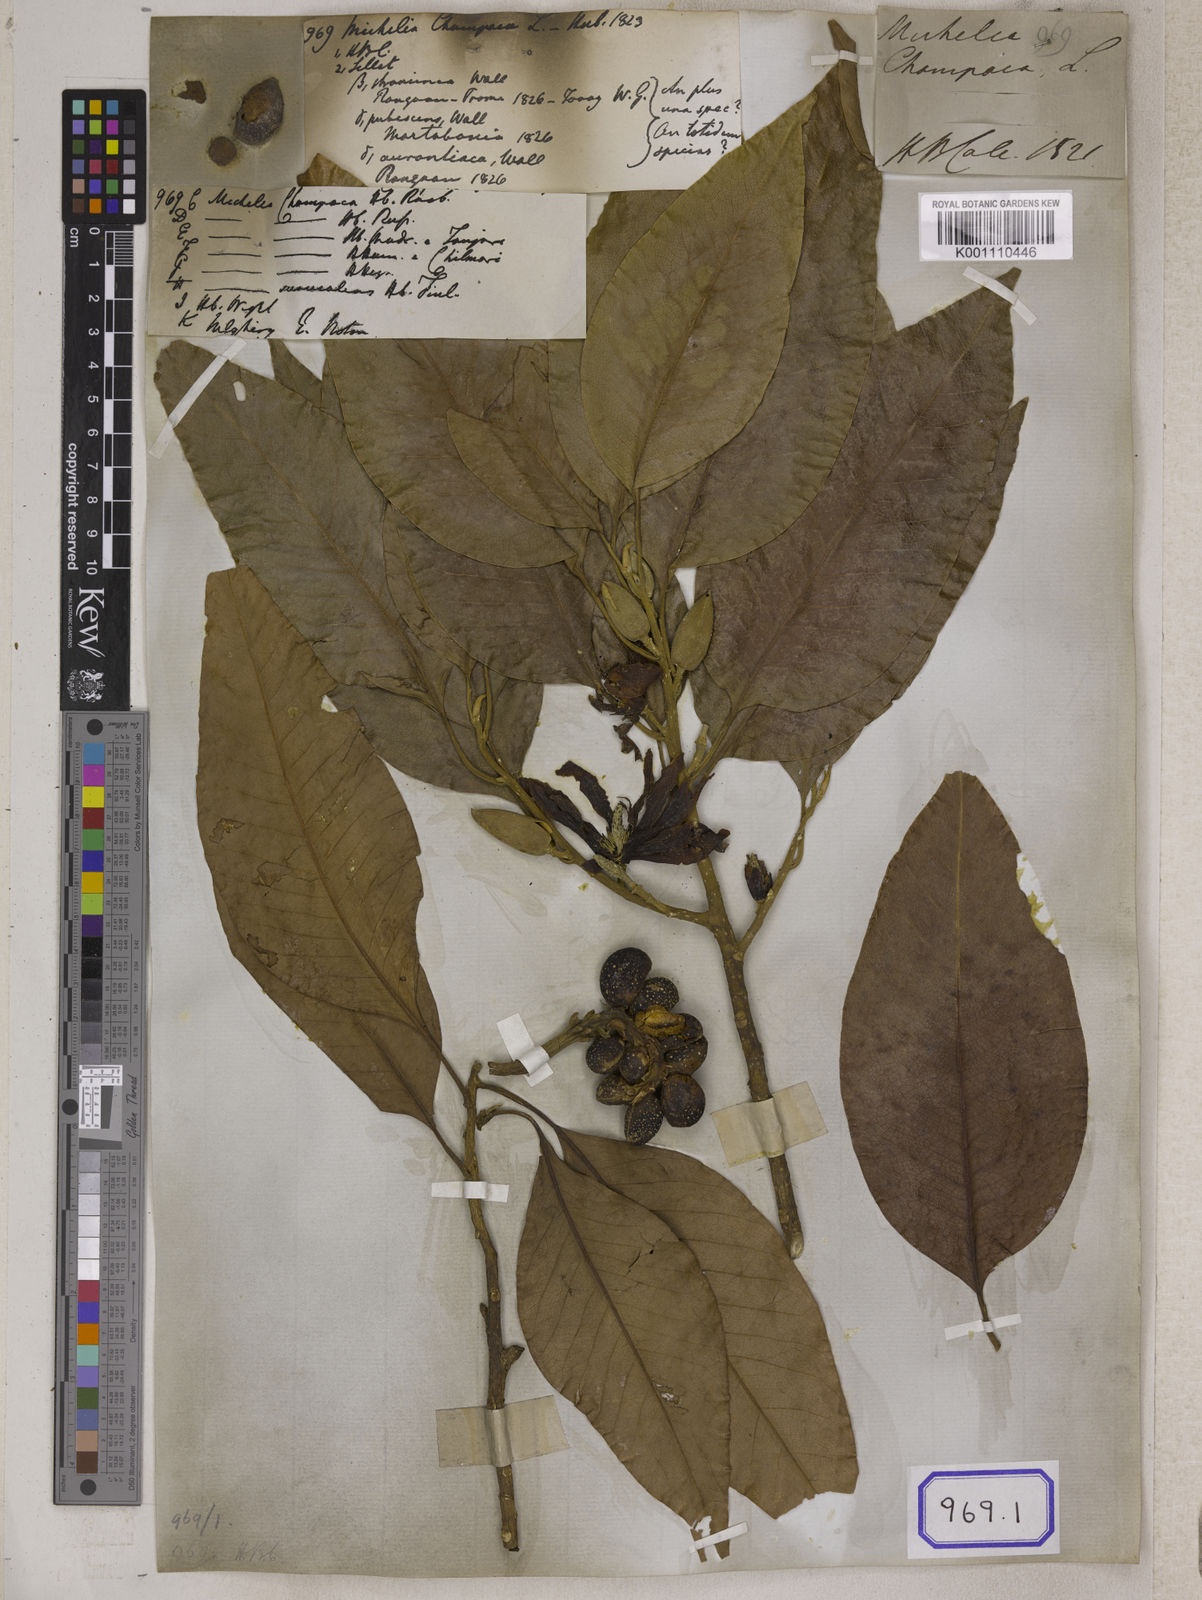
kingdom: Plantae
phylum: Tracheophyta
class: Magnoliopsida
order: Magnoliales
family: Magnoliaceae
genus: Magnolia
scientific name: Magnolia champaca
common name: Champak
